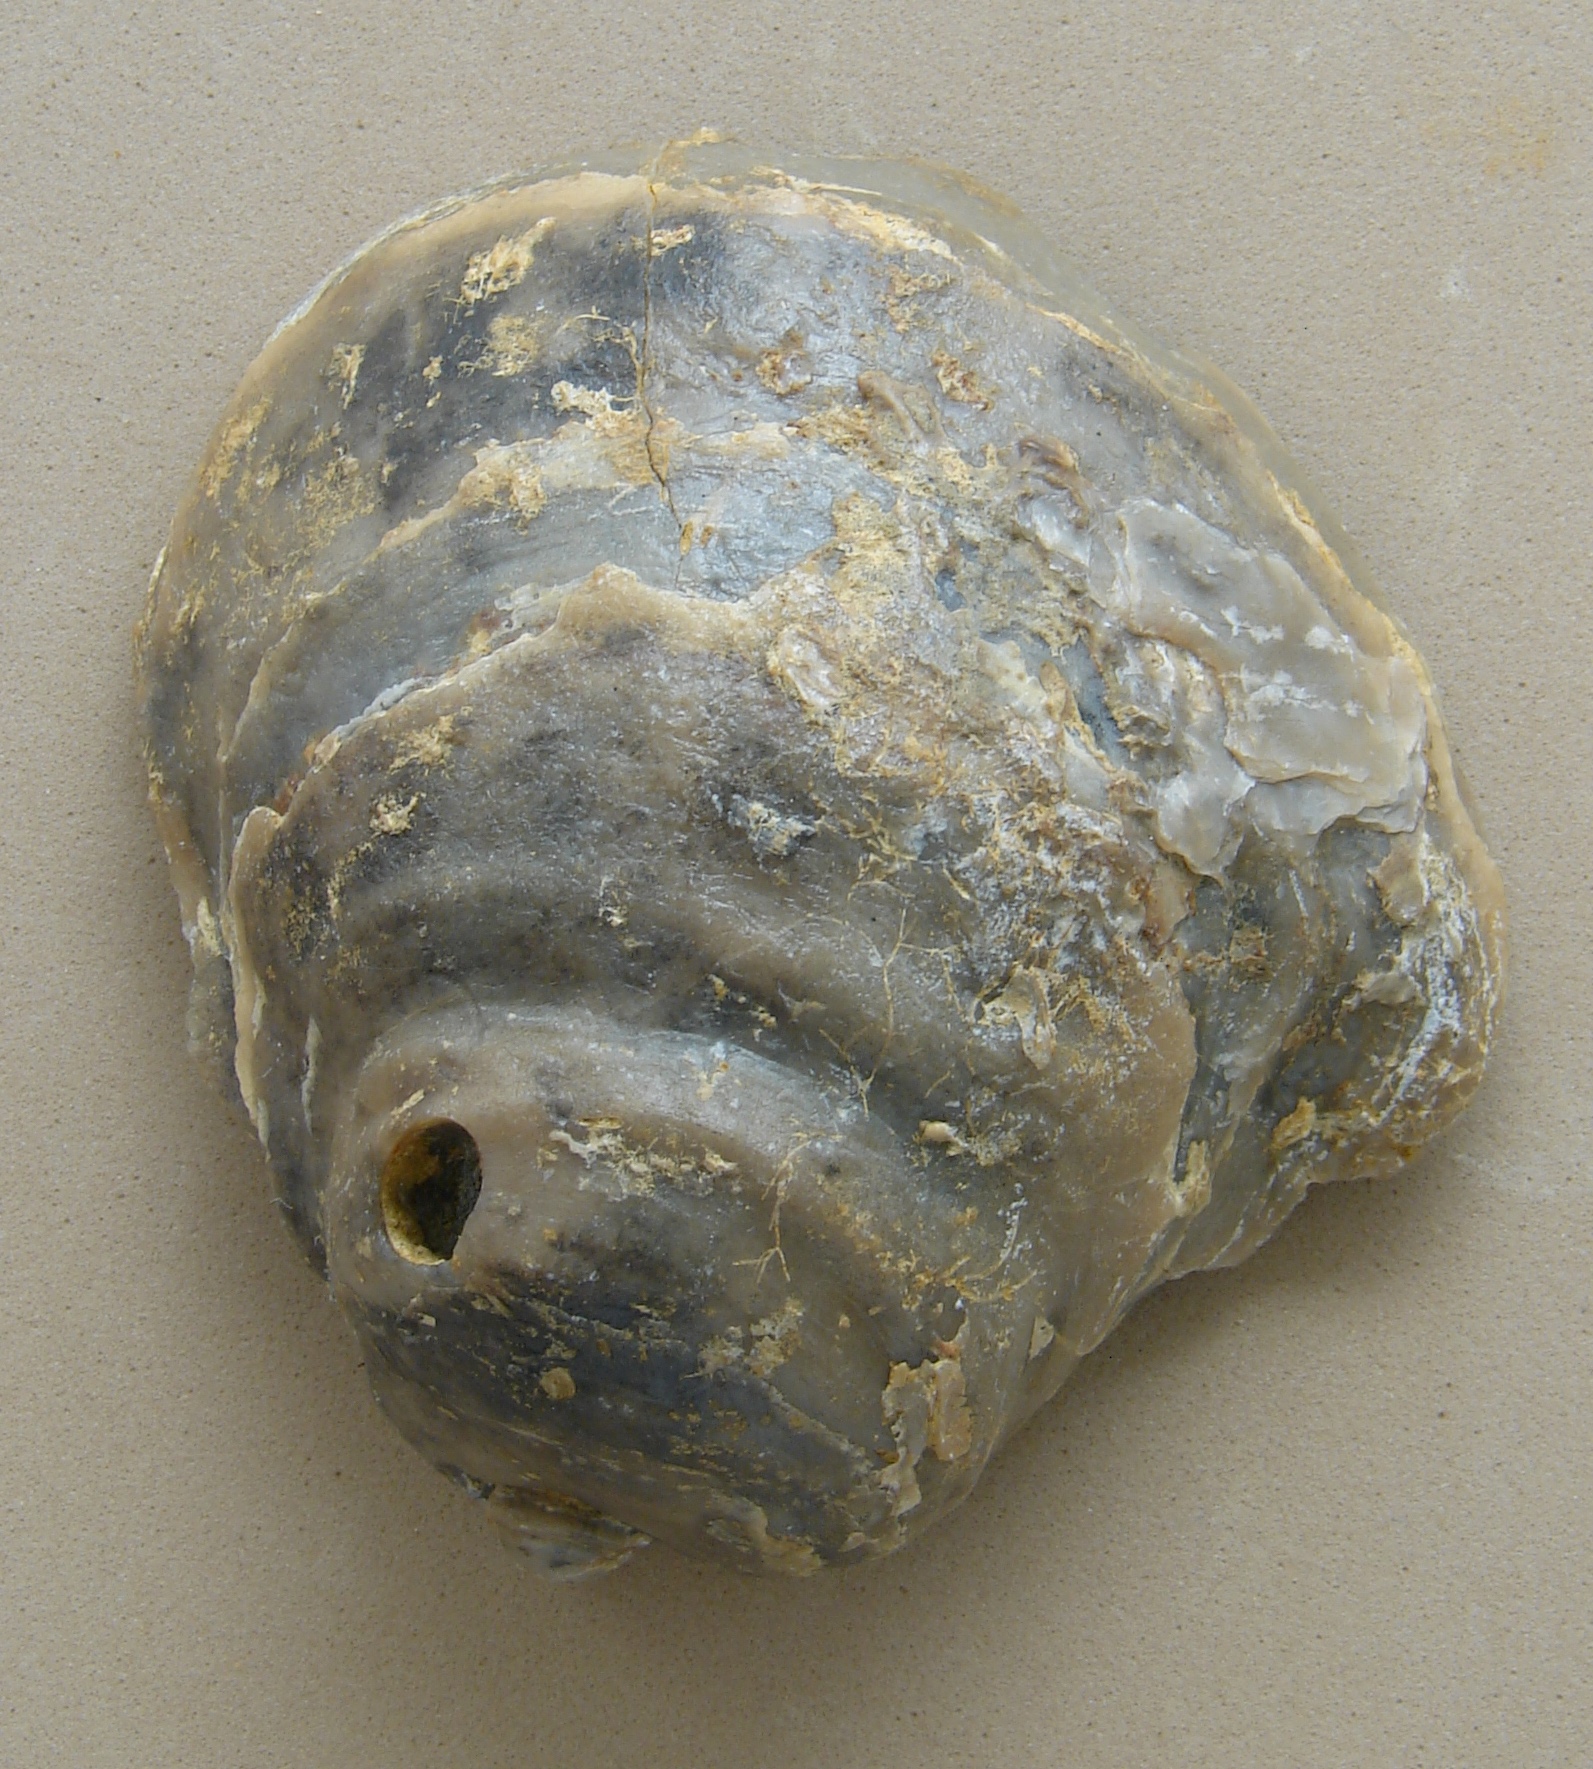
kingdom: Animalia
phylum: Mollusca
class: Bivalvia
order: Ostreida
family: Gryphaeidae
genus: Gryphaea
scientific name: Gryphaea dilatata
